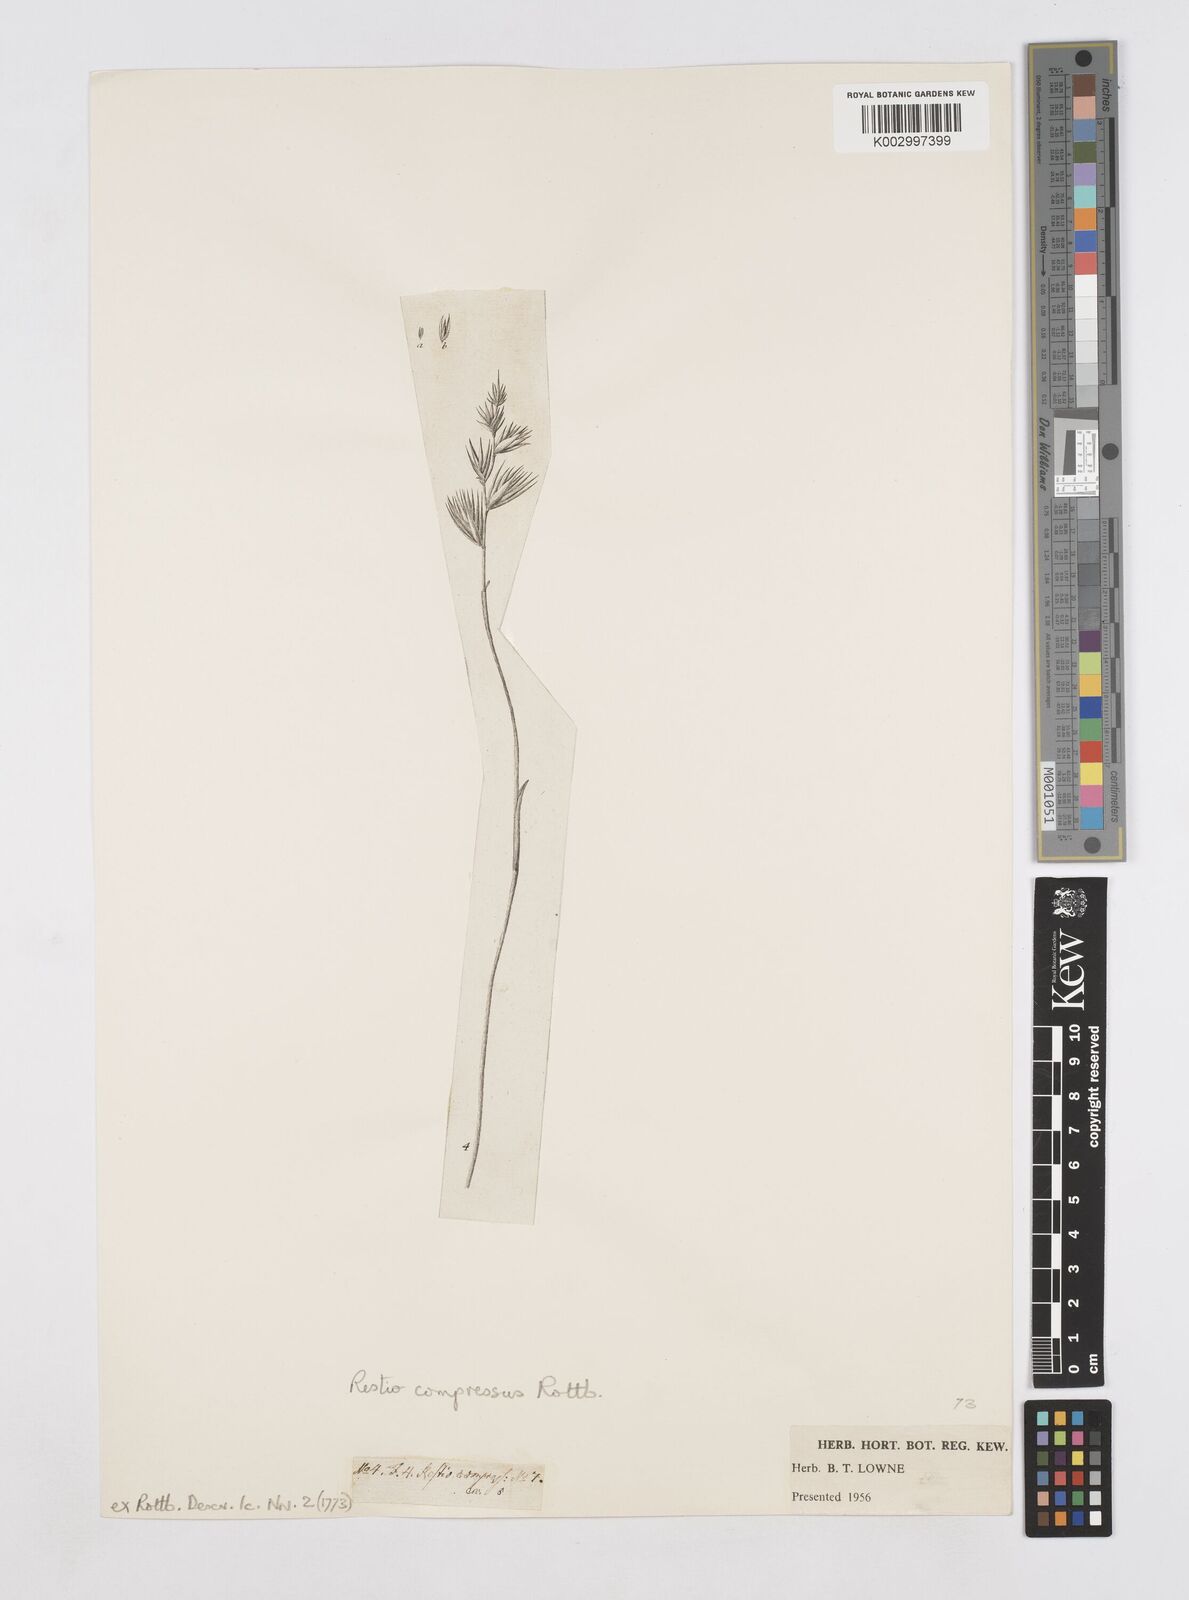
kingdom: Plantae
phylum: Tracheophyta
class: Liliopsida
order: Poales
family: Restionaceae
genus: Platycaulos
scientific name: Platycaulos compressus
